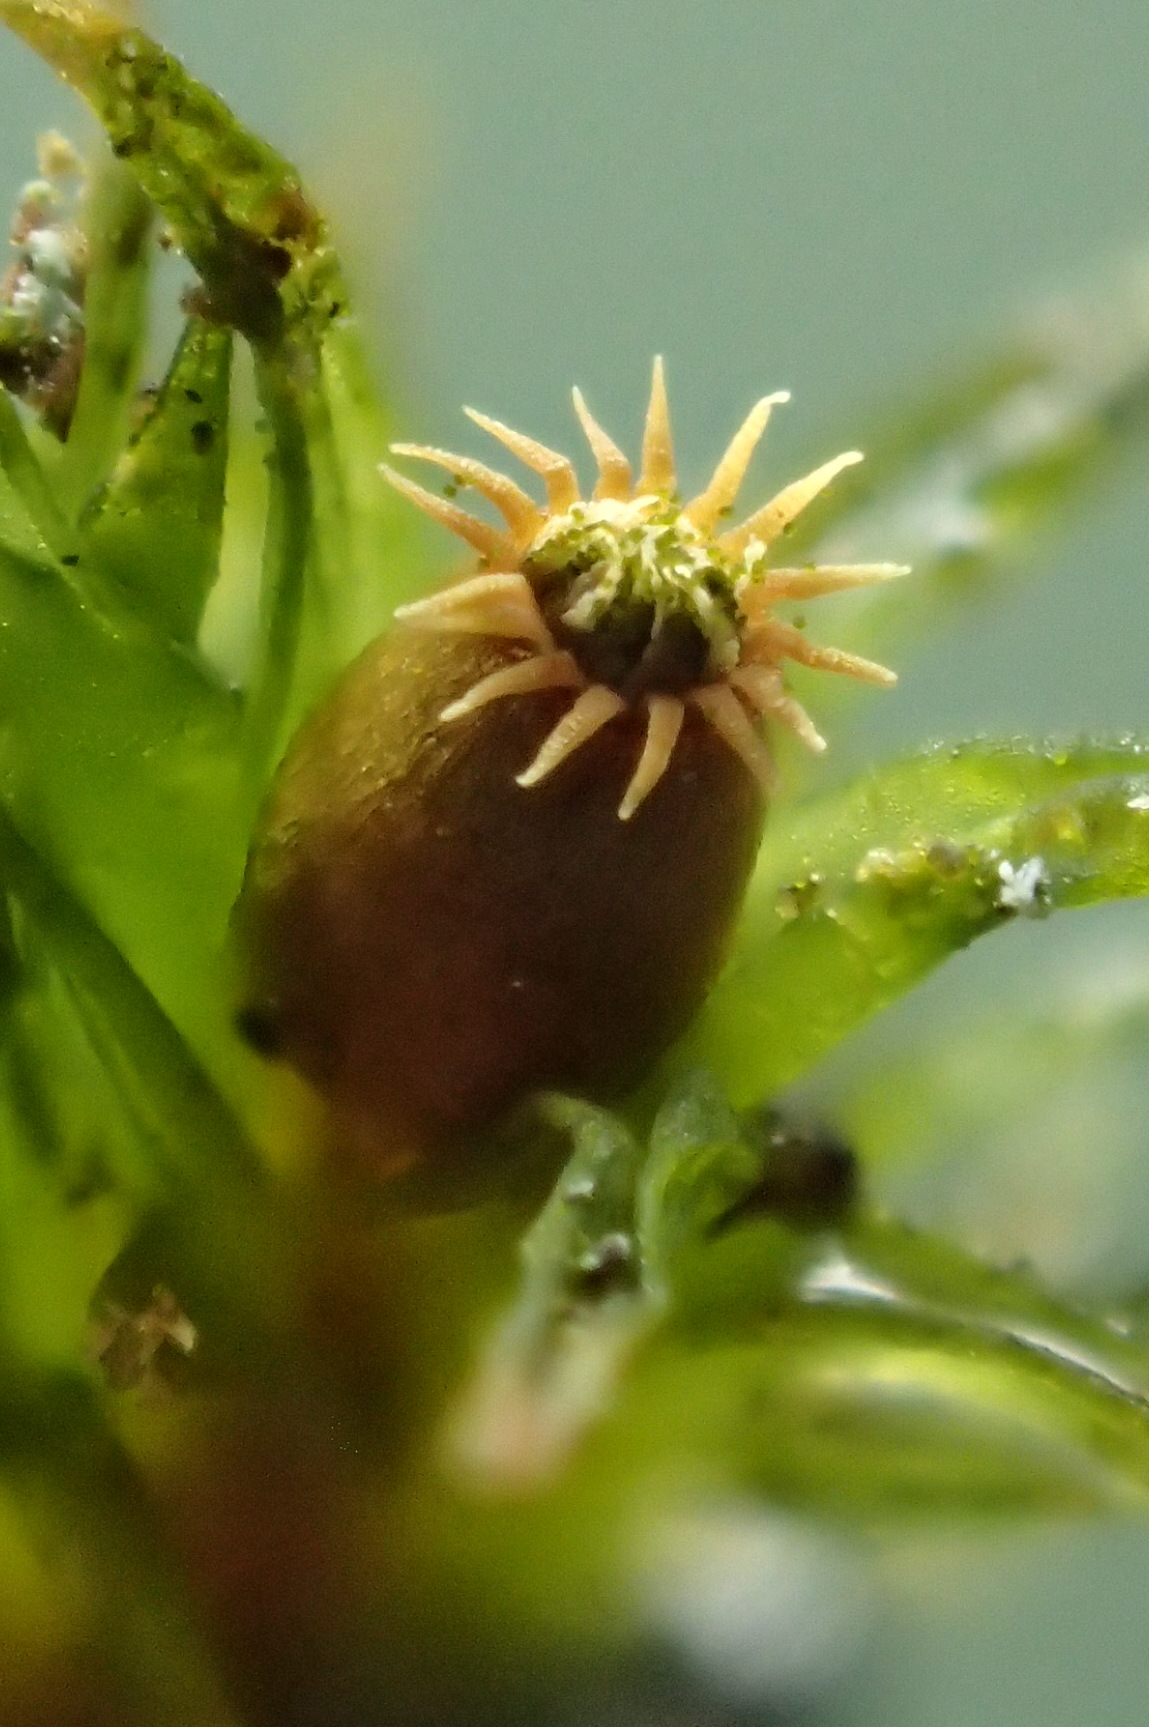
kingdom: Plantae
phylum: Bryophyta
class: Bryopsida
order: Orthotrichales
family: Orthotrichaceae
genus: Lewinskya
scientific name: Lewinskya striata
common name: Glatkapslet furehætte
